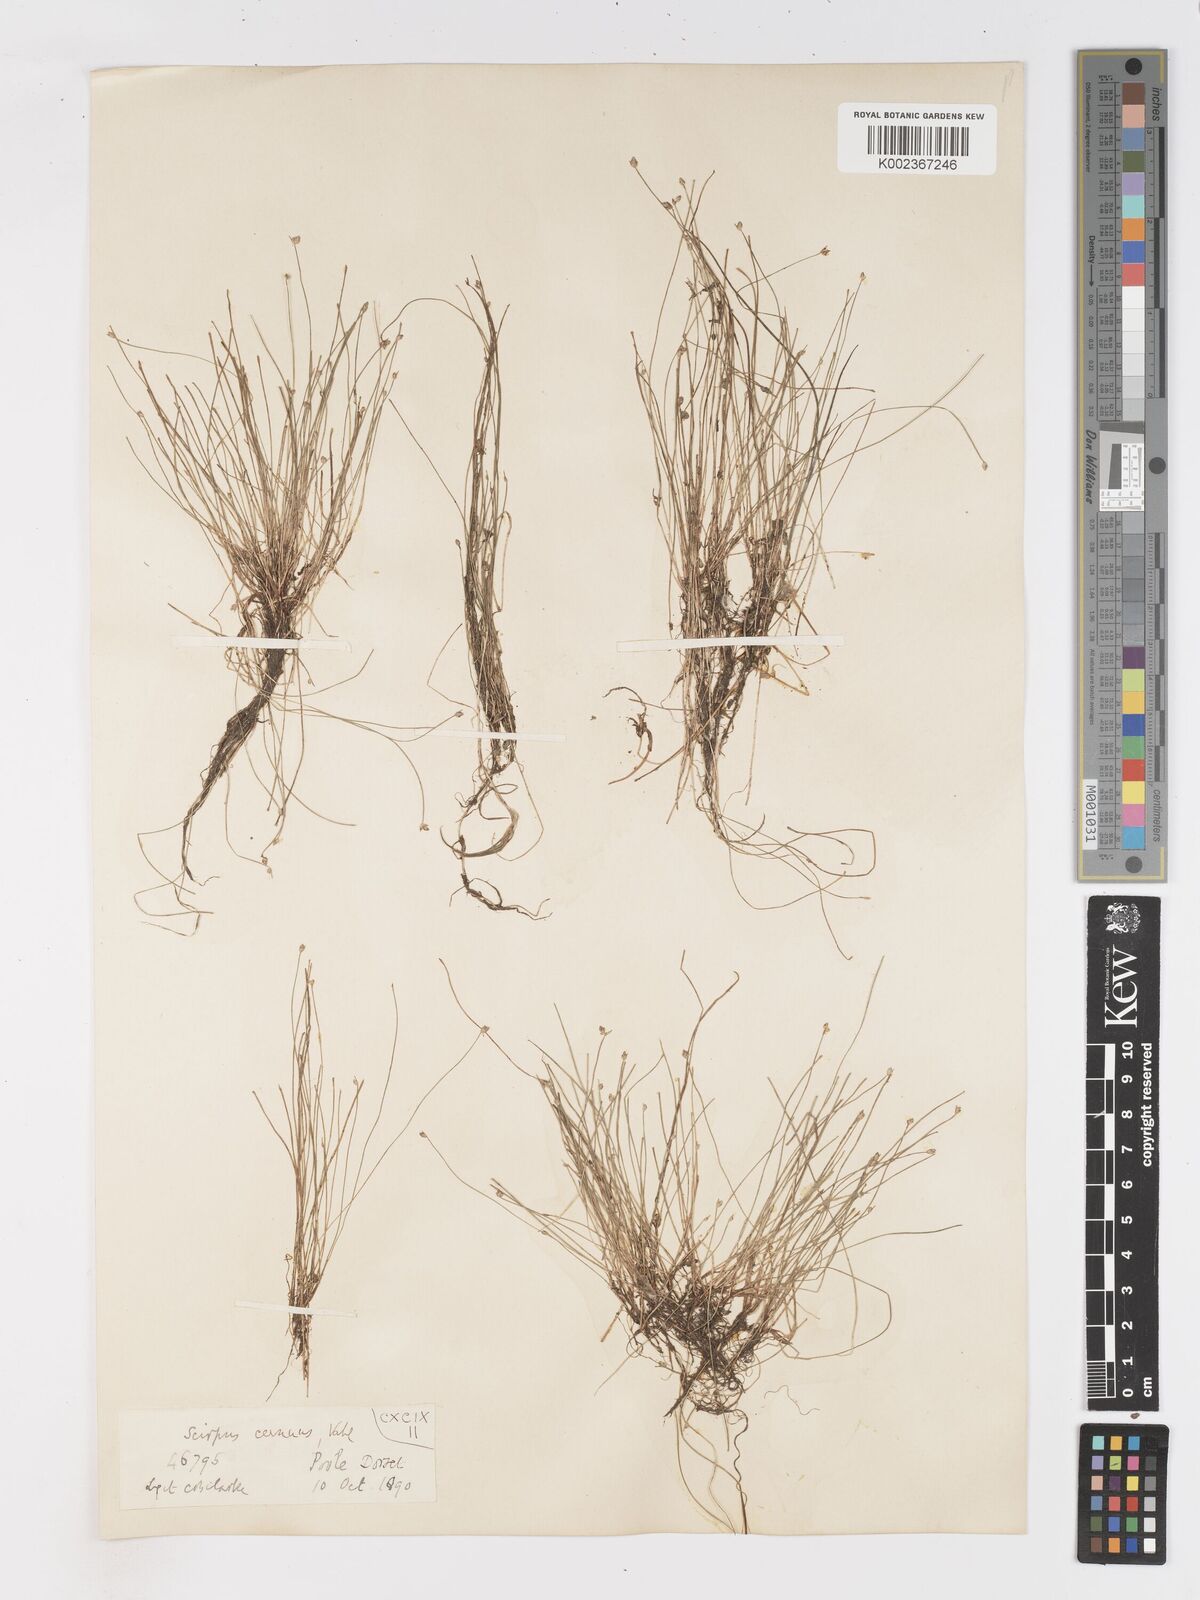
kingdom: Plantae
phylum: Tracheophyta
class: Liliopsida
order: Poales
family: Cyperaceae
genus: Isolepis
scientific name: Isolepis cernua
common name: Slender club-rush
